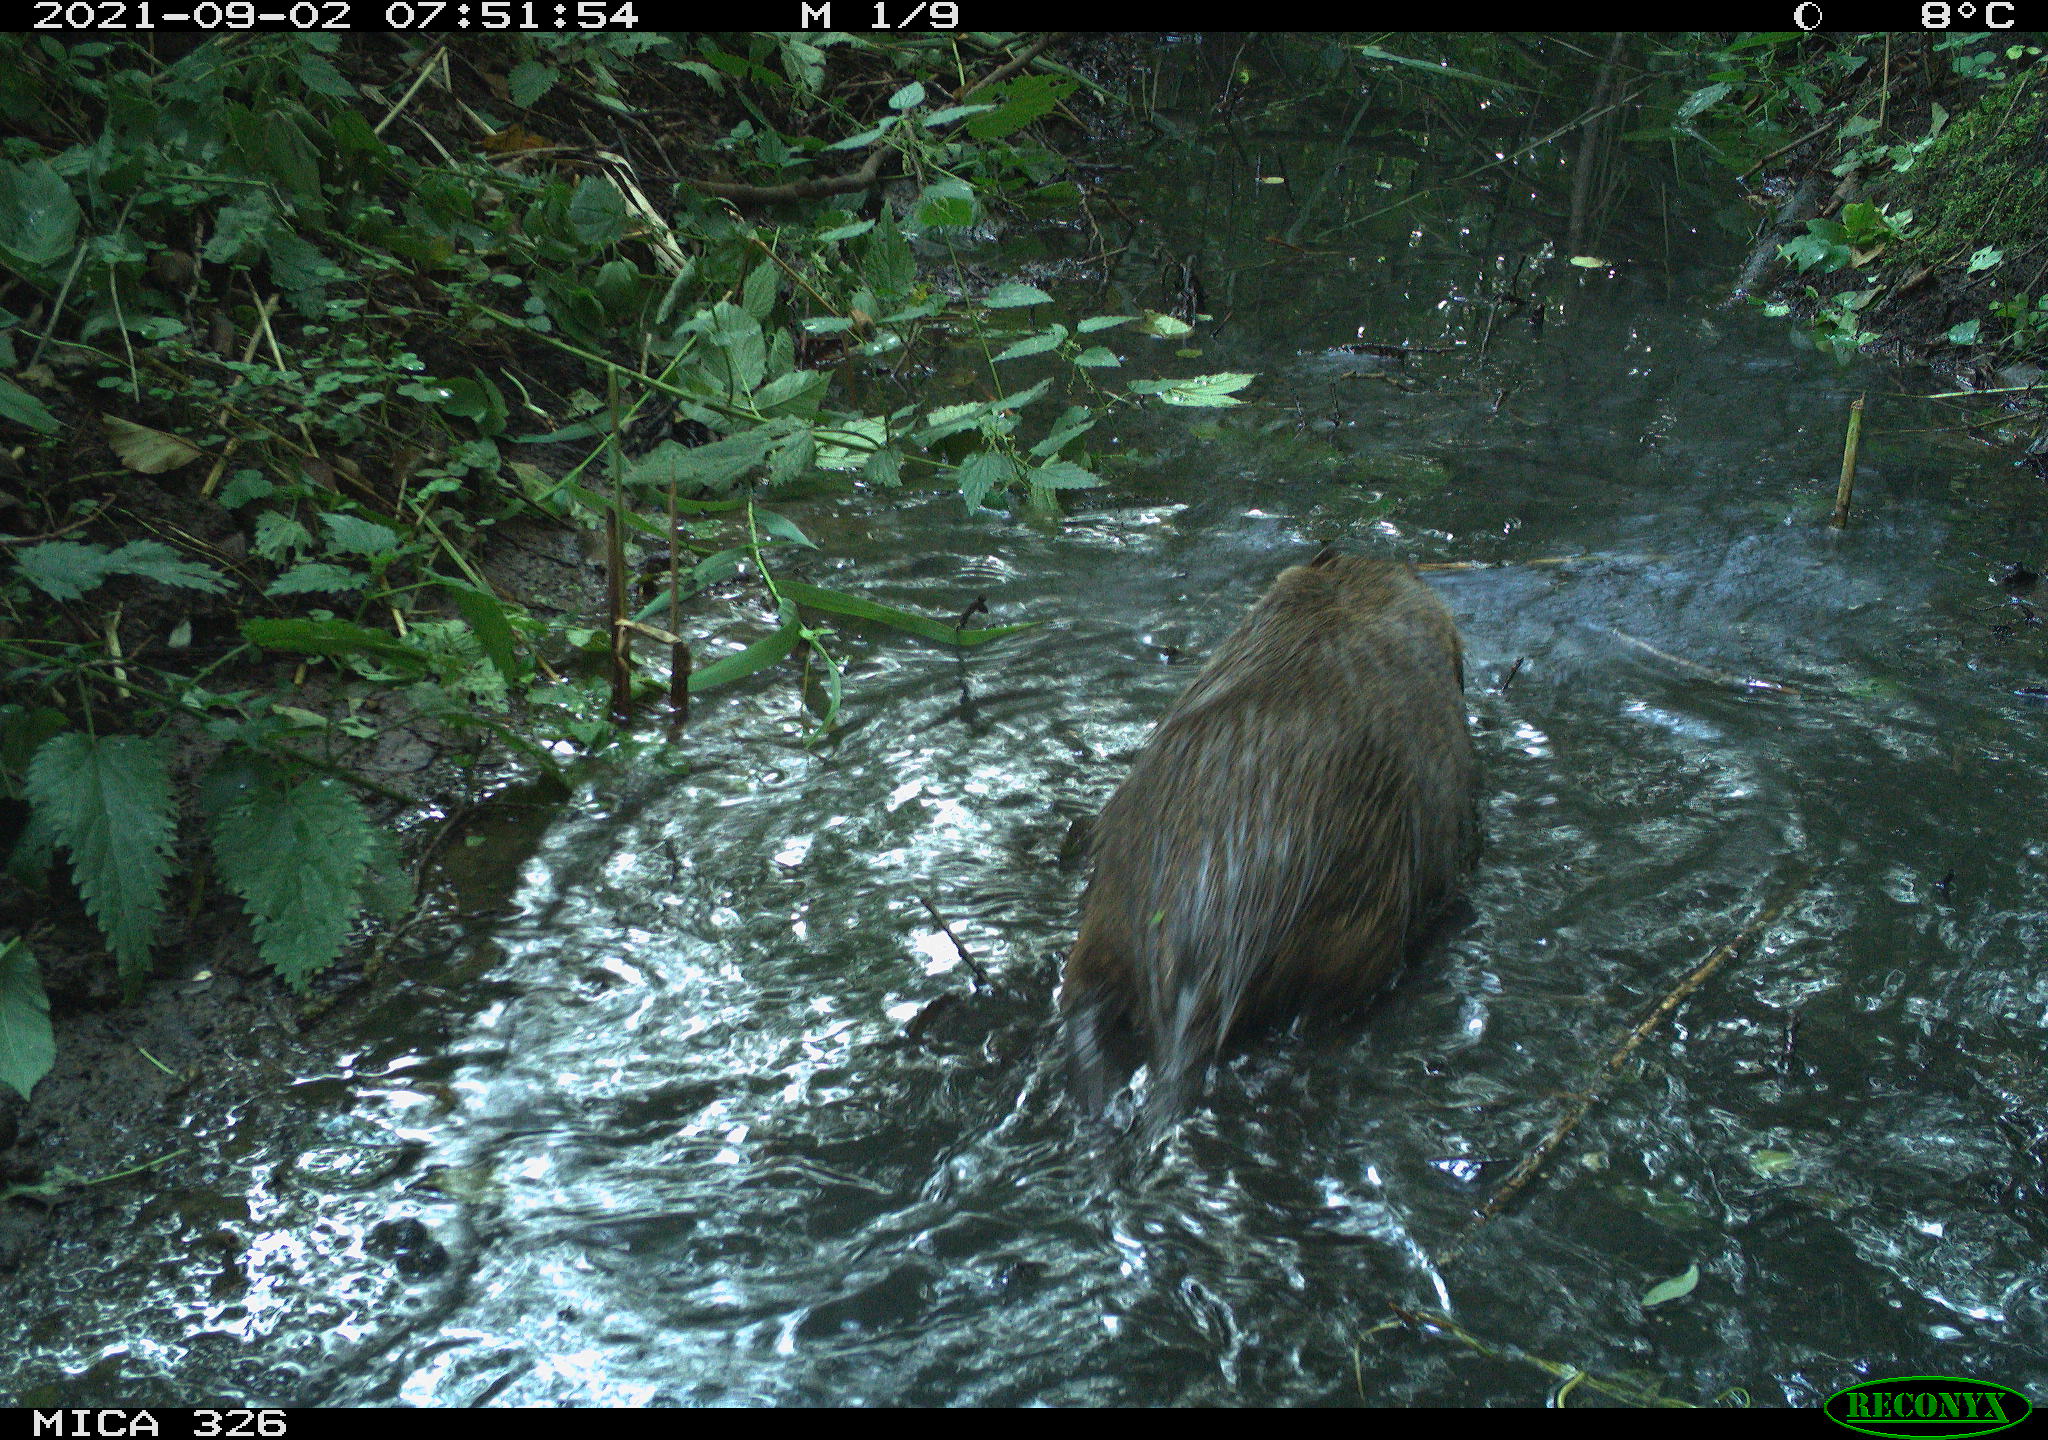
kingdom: Animalia
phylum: Chordata
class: Mammalia
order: Rodentia
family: Myocastoridae
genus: Myocastor
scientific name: Myocastor coypus
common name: Coypu
